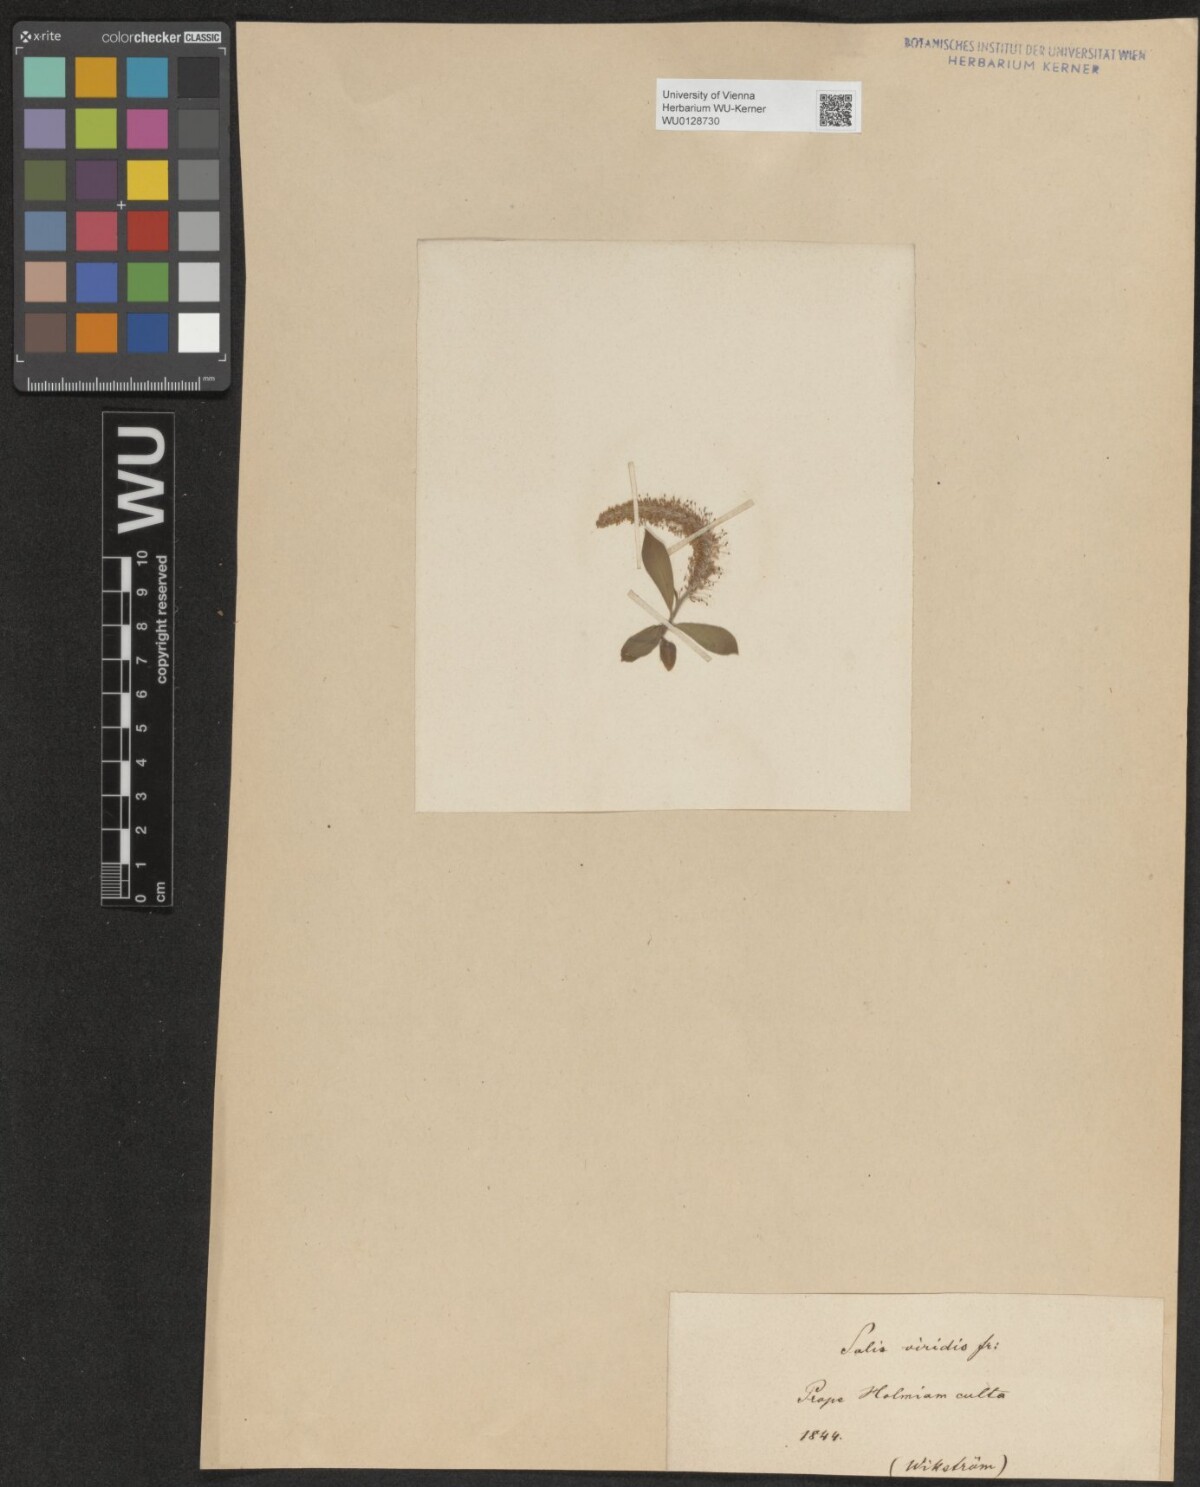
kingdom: Plantae
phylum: Tracheophyta
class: Magnoliopsida
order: Malpighiales
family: Salicaceae
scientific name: Salicaceae
